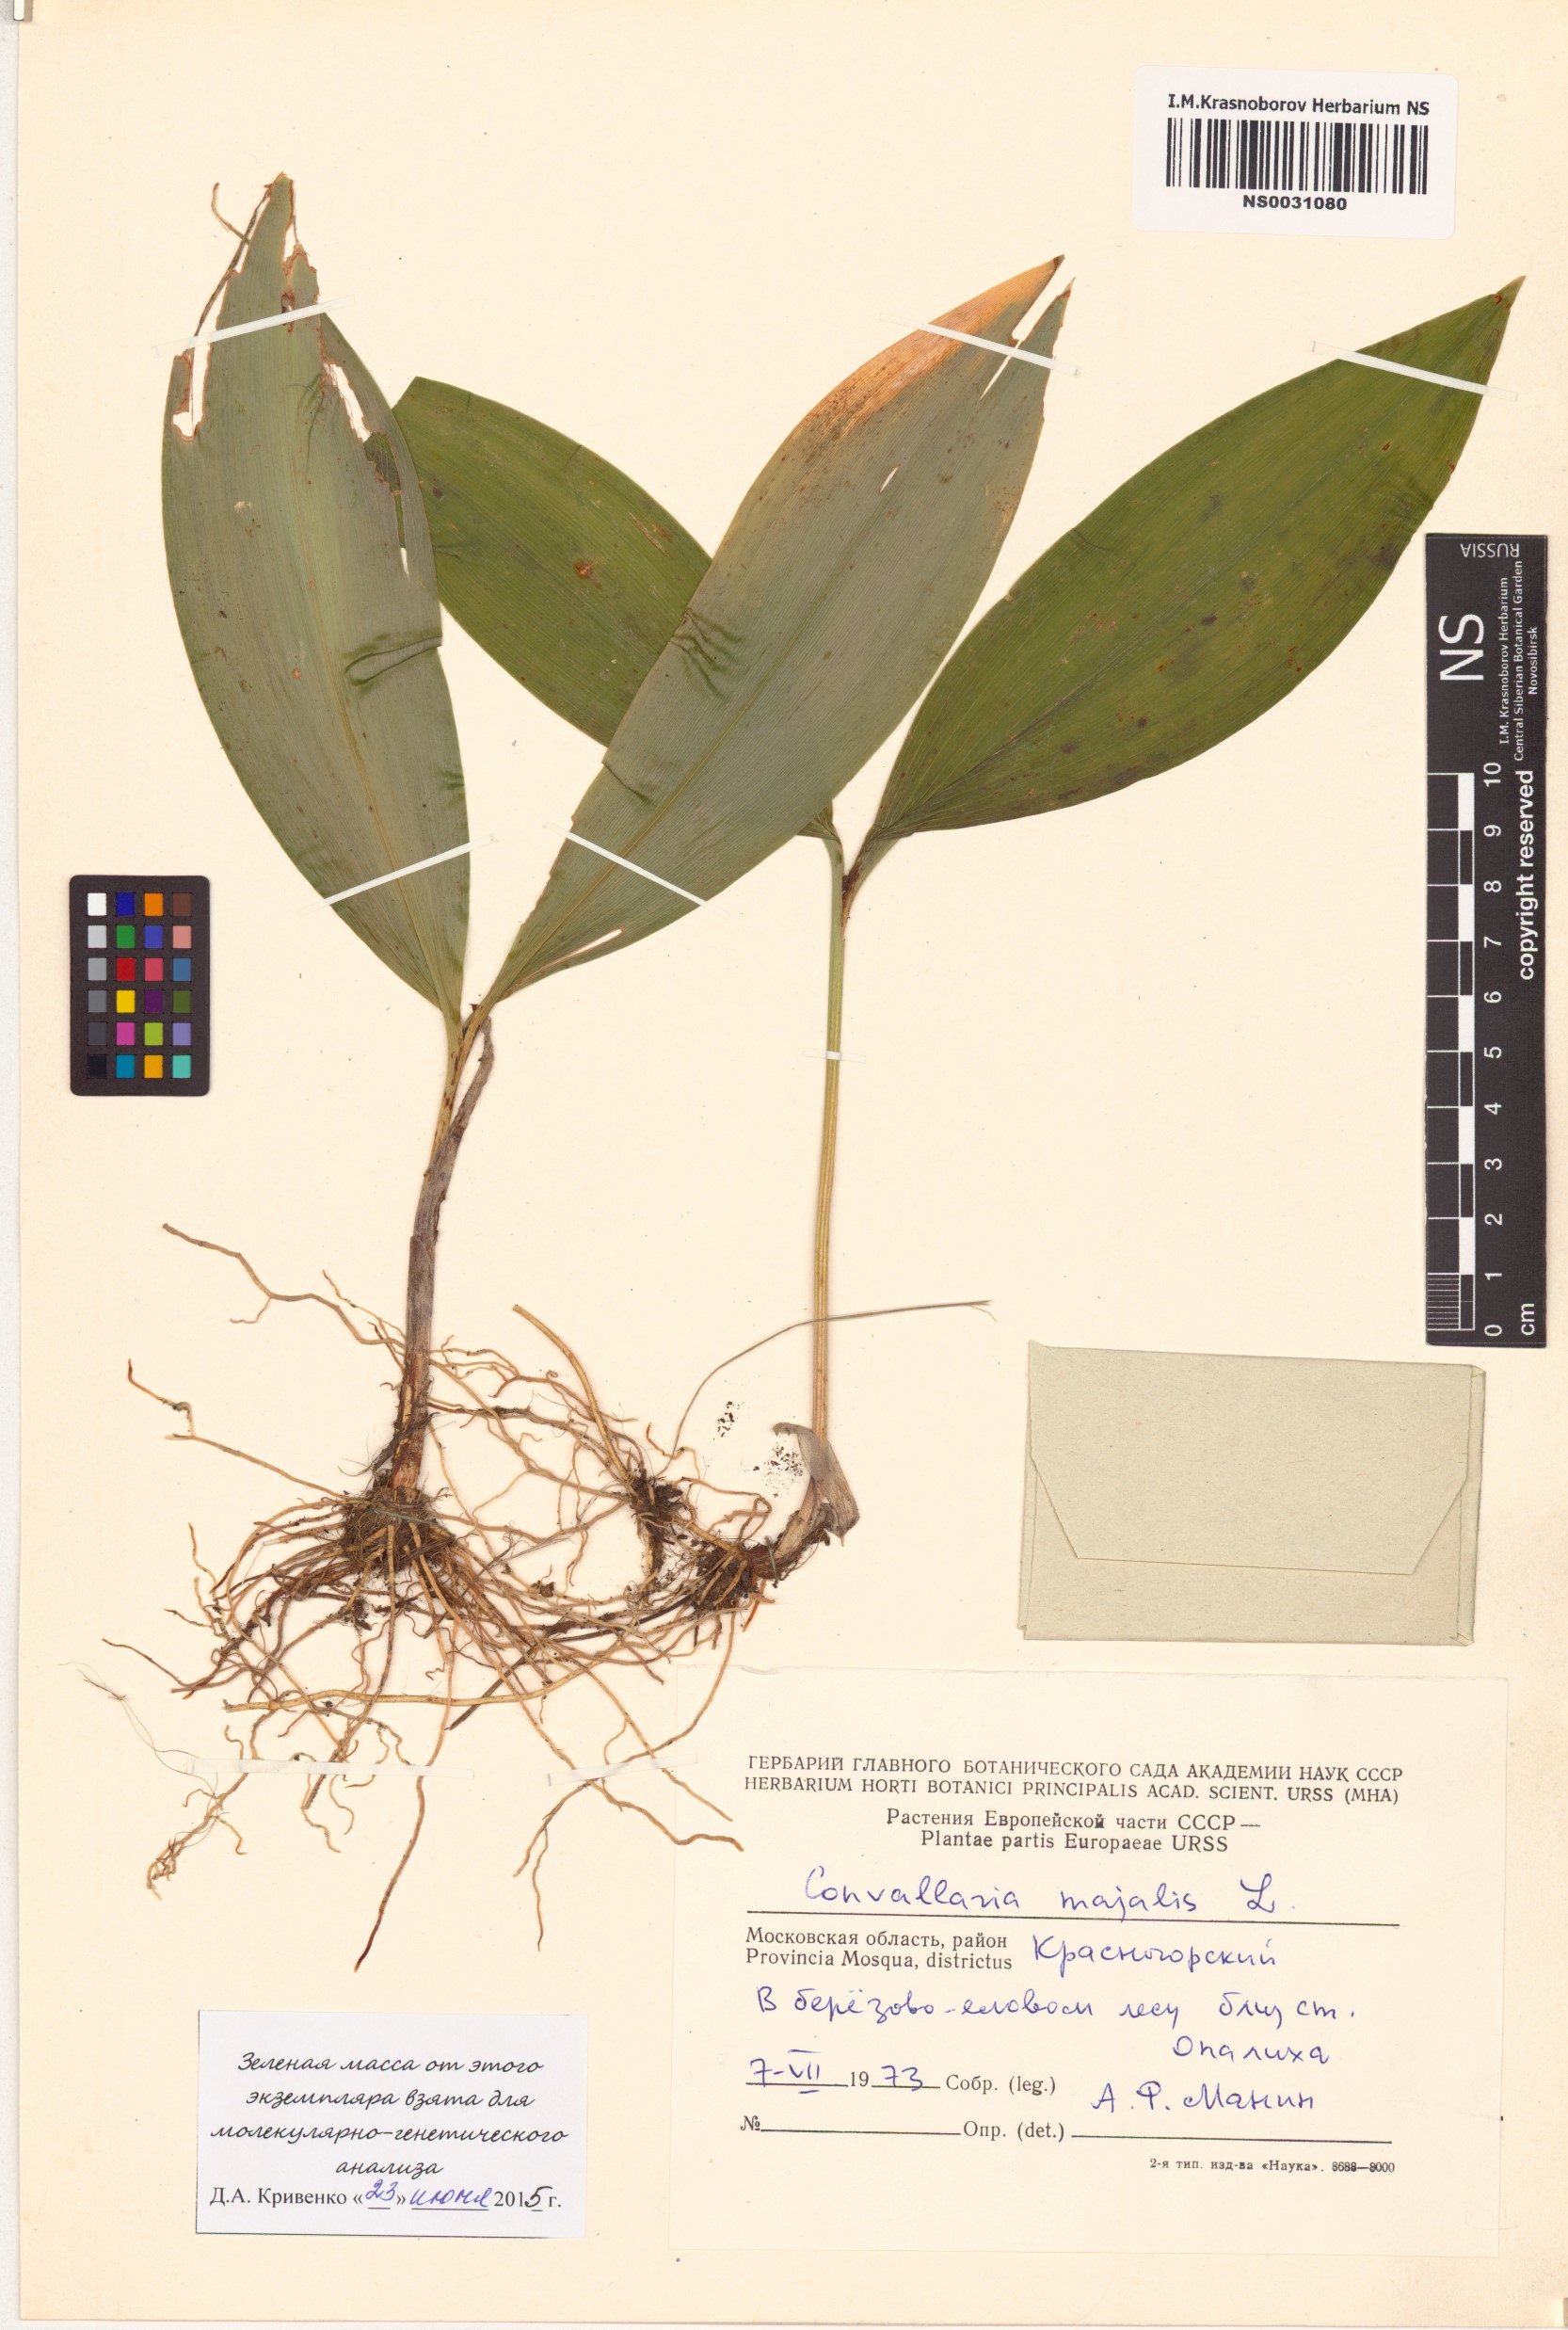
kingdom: Plantae
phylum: Tracheophyta
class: Liliopsida
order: Asparagales
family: Asparagaceae
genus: Convallaria
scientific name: Convallaria majalis
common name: Lily-of-the-valley
